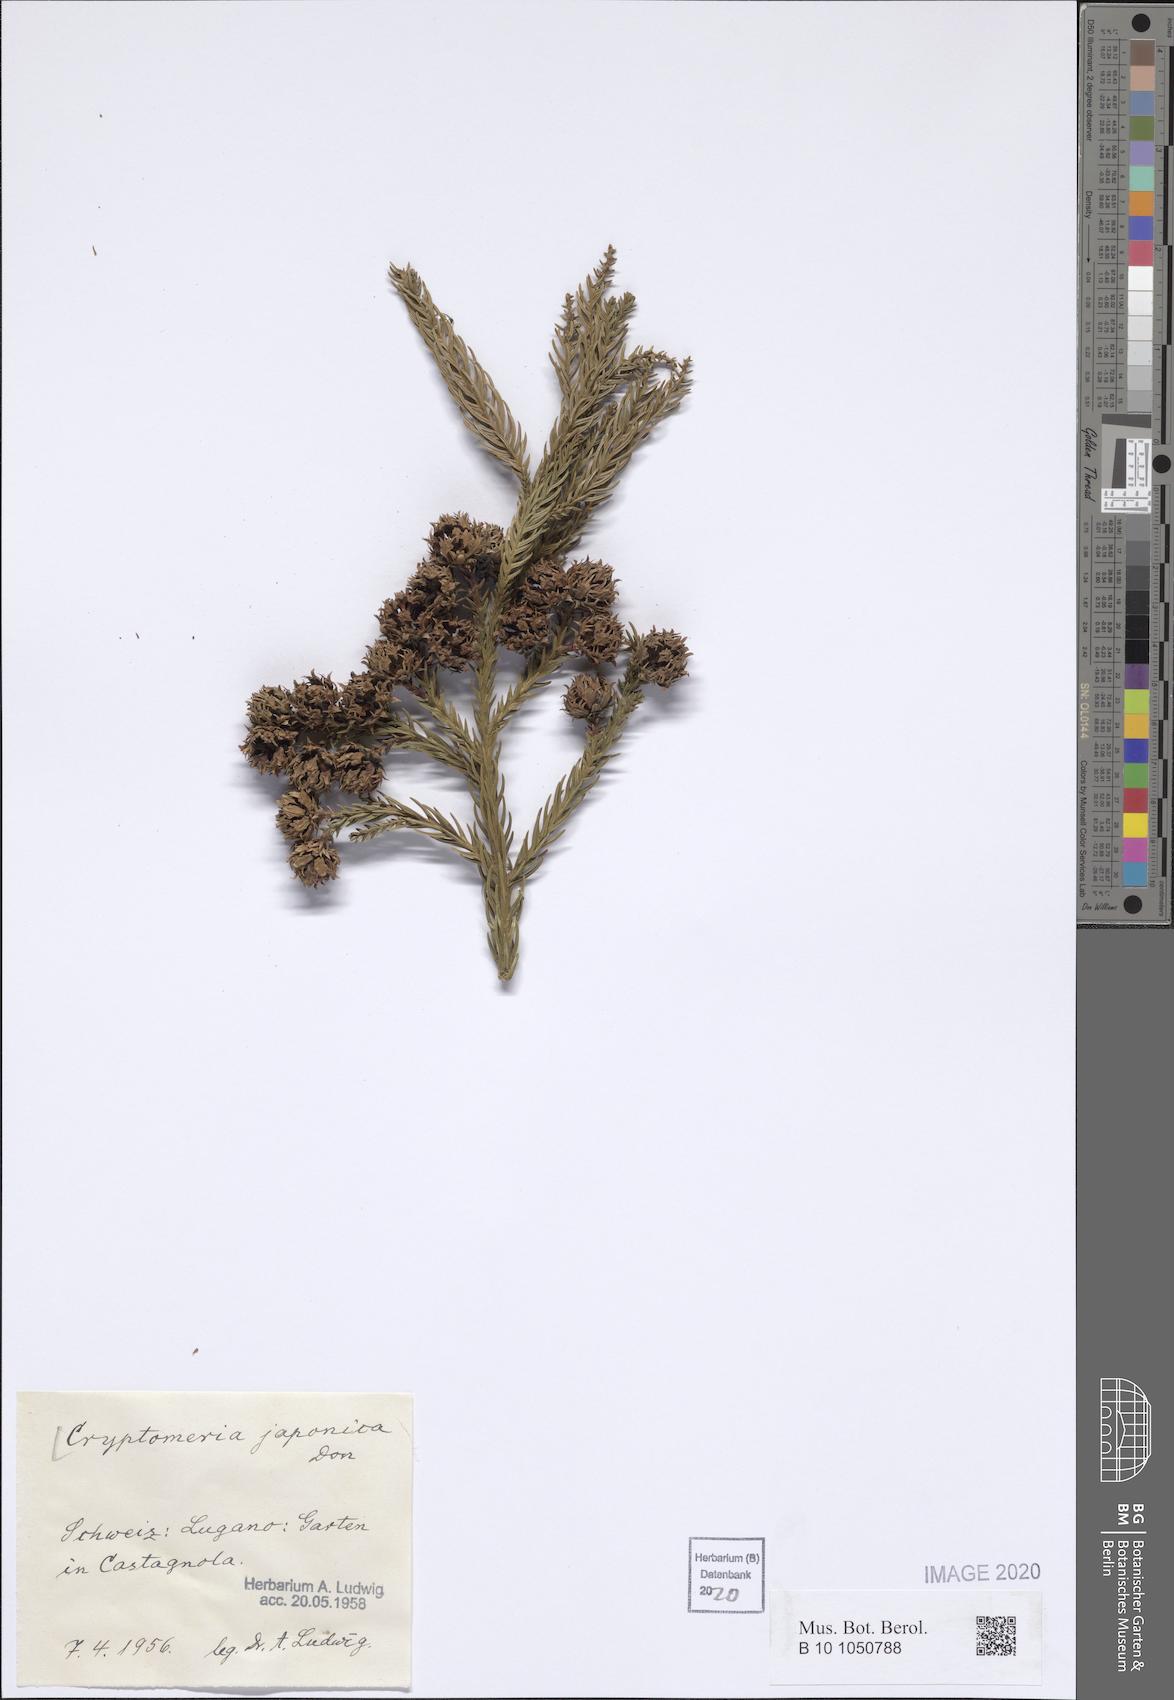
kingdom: Plantae
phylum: Tracheophyta
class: Pinopsida
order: Pinales
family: Cupressaceae
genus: Cryptomeria
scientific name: Cryptomeria japonica
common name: Japanese cedar
